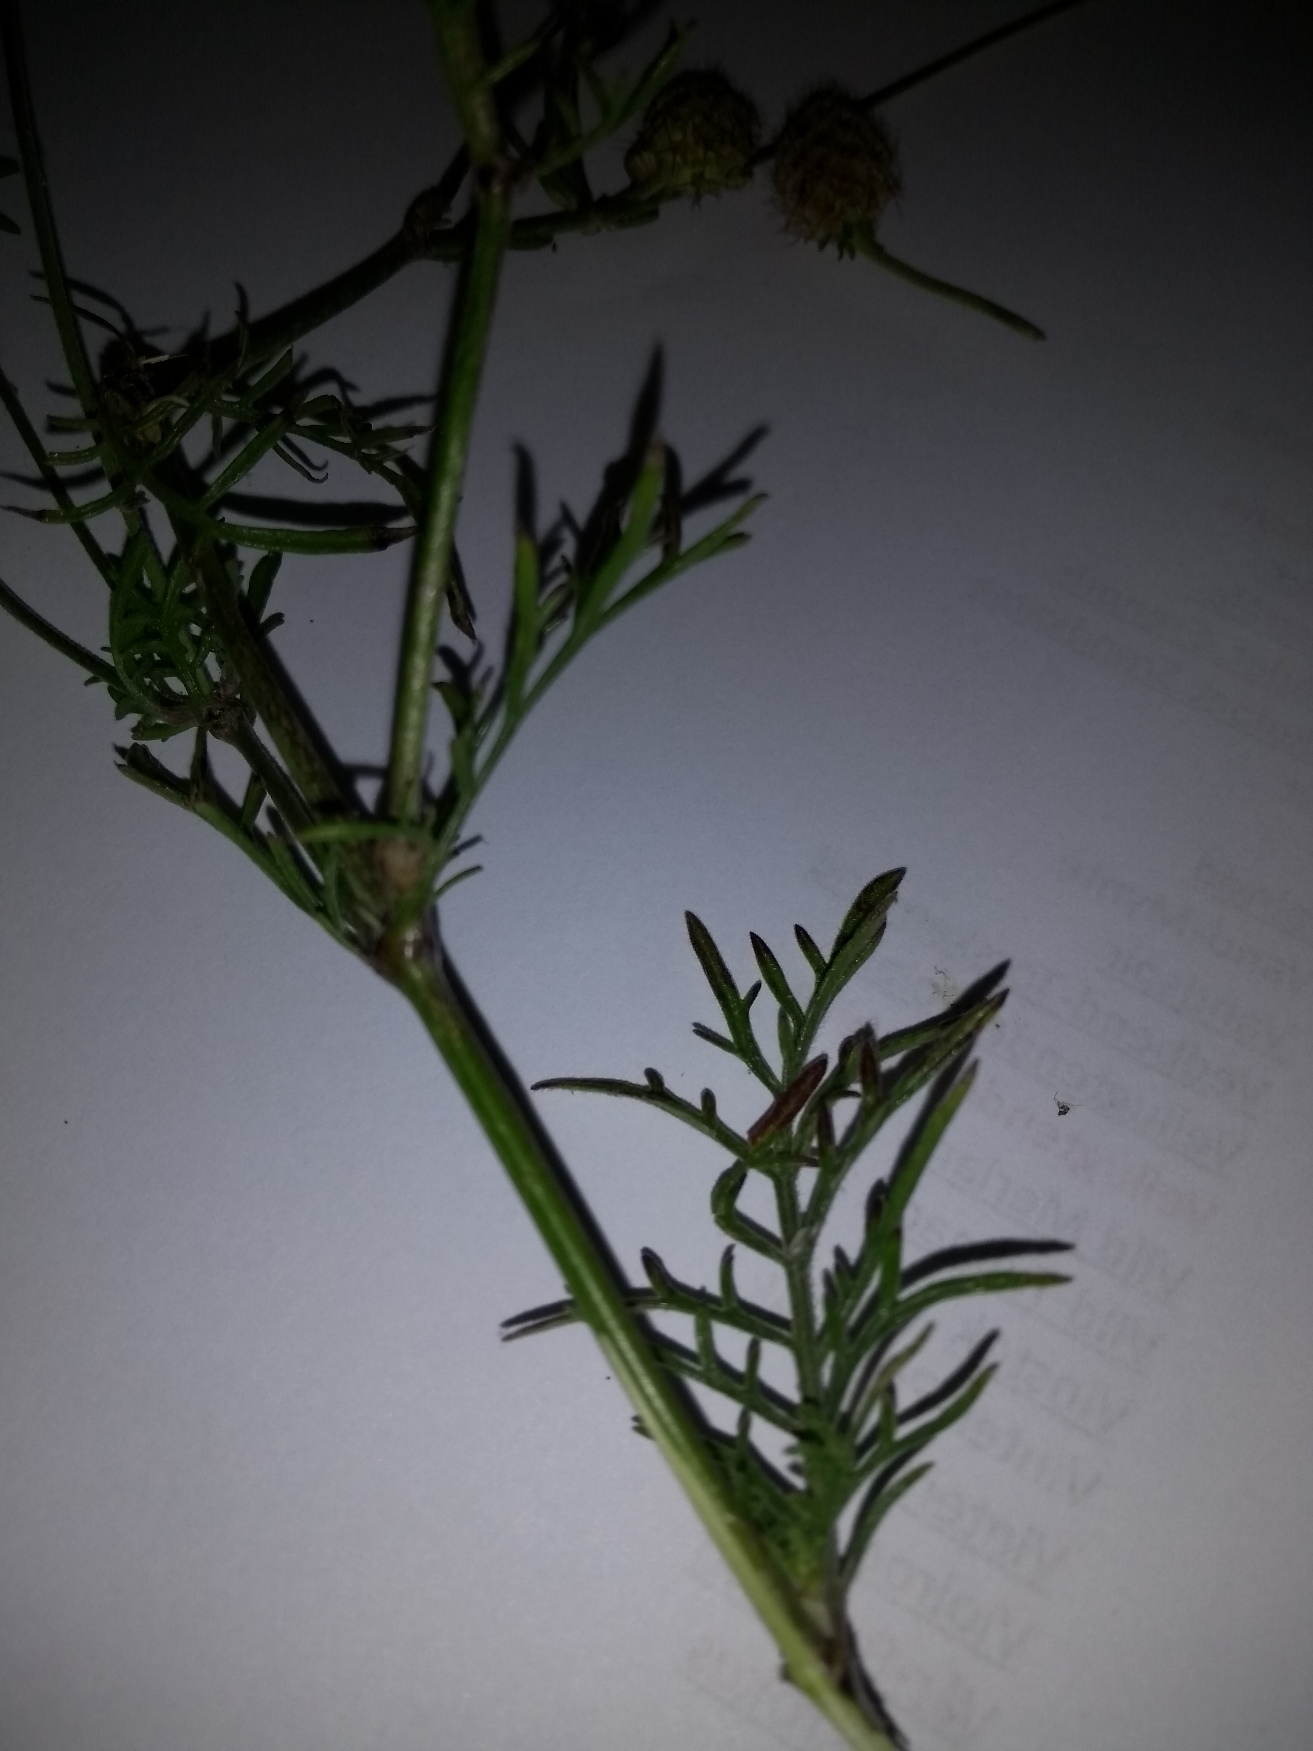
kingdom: Plantae
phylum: Tracheophyta
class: Magnoliopsida
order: Dipsacales
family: Caprifoliaceae
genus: Scabiosa
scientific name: Scabiosa ochroleuca
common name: Gul skabiose
